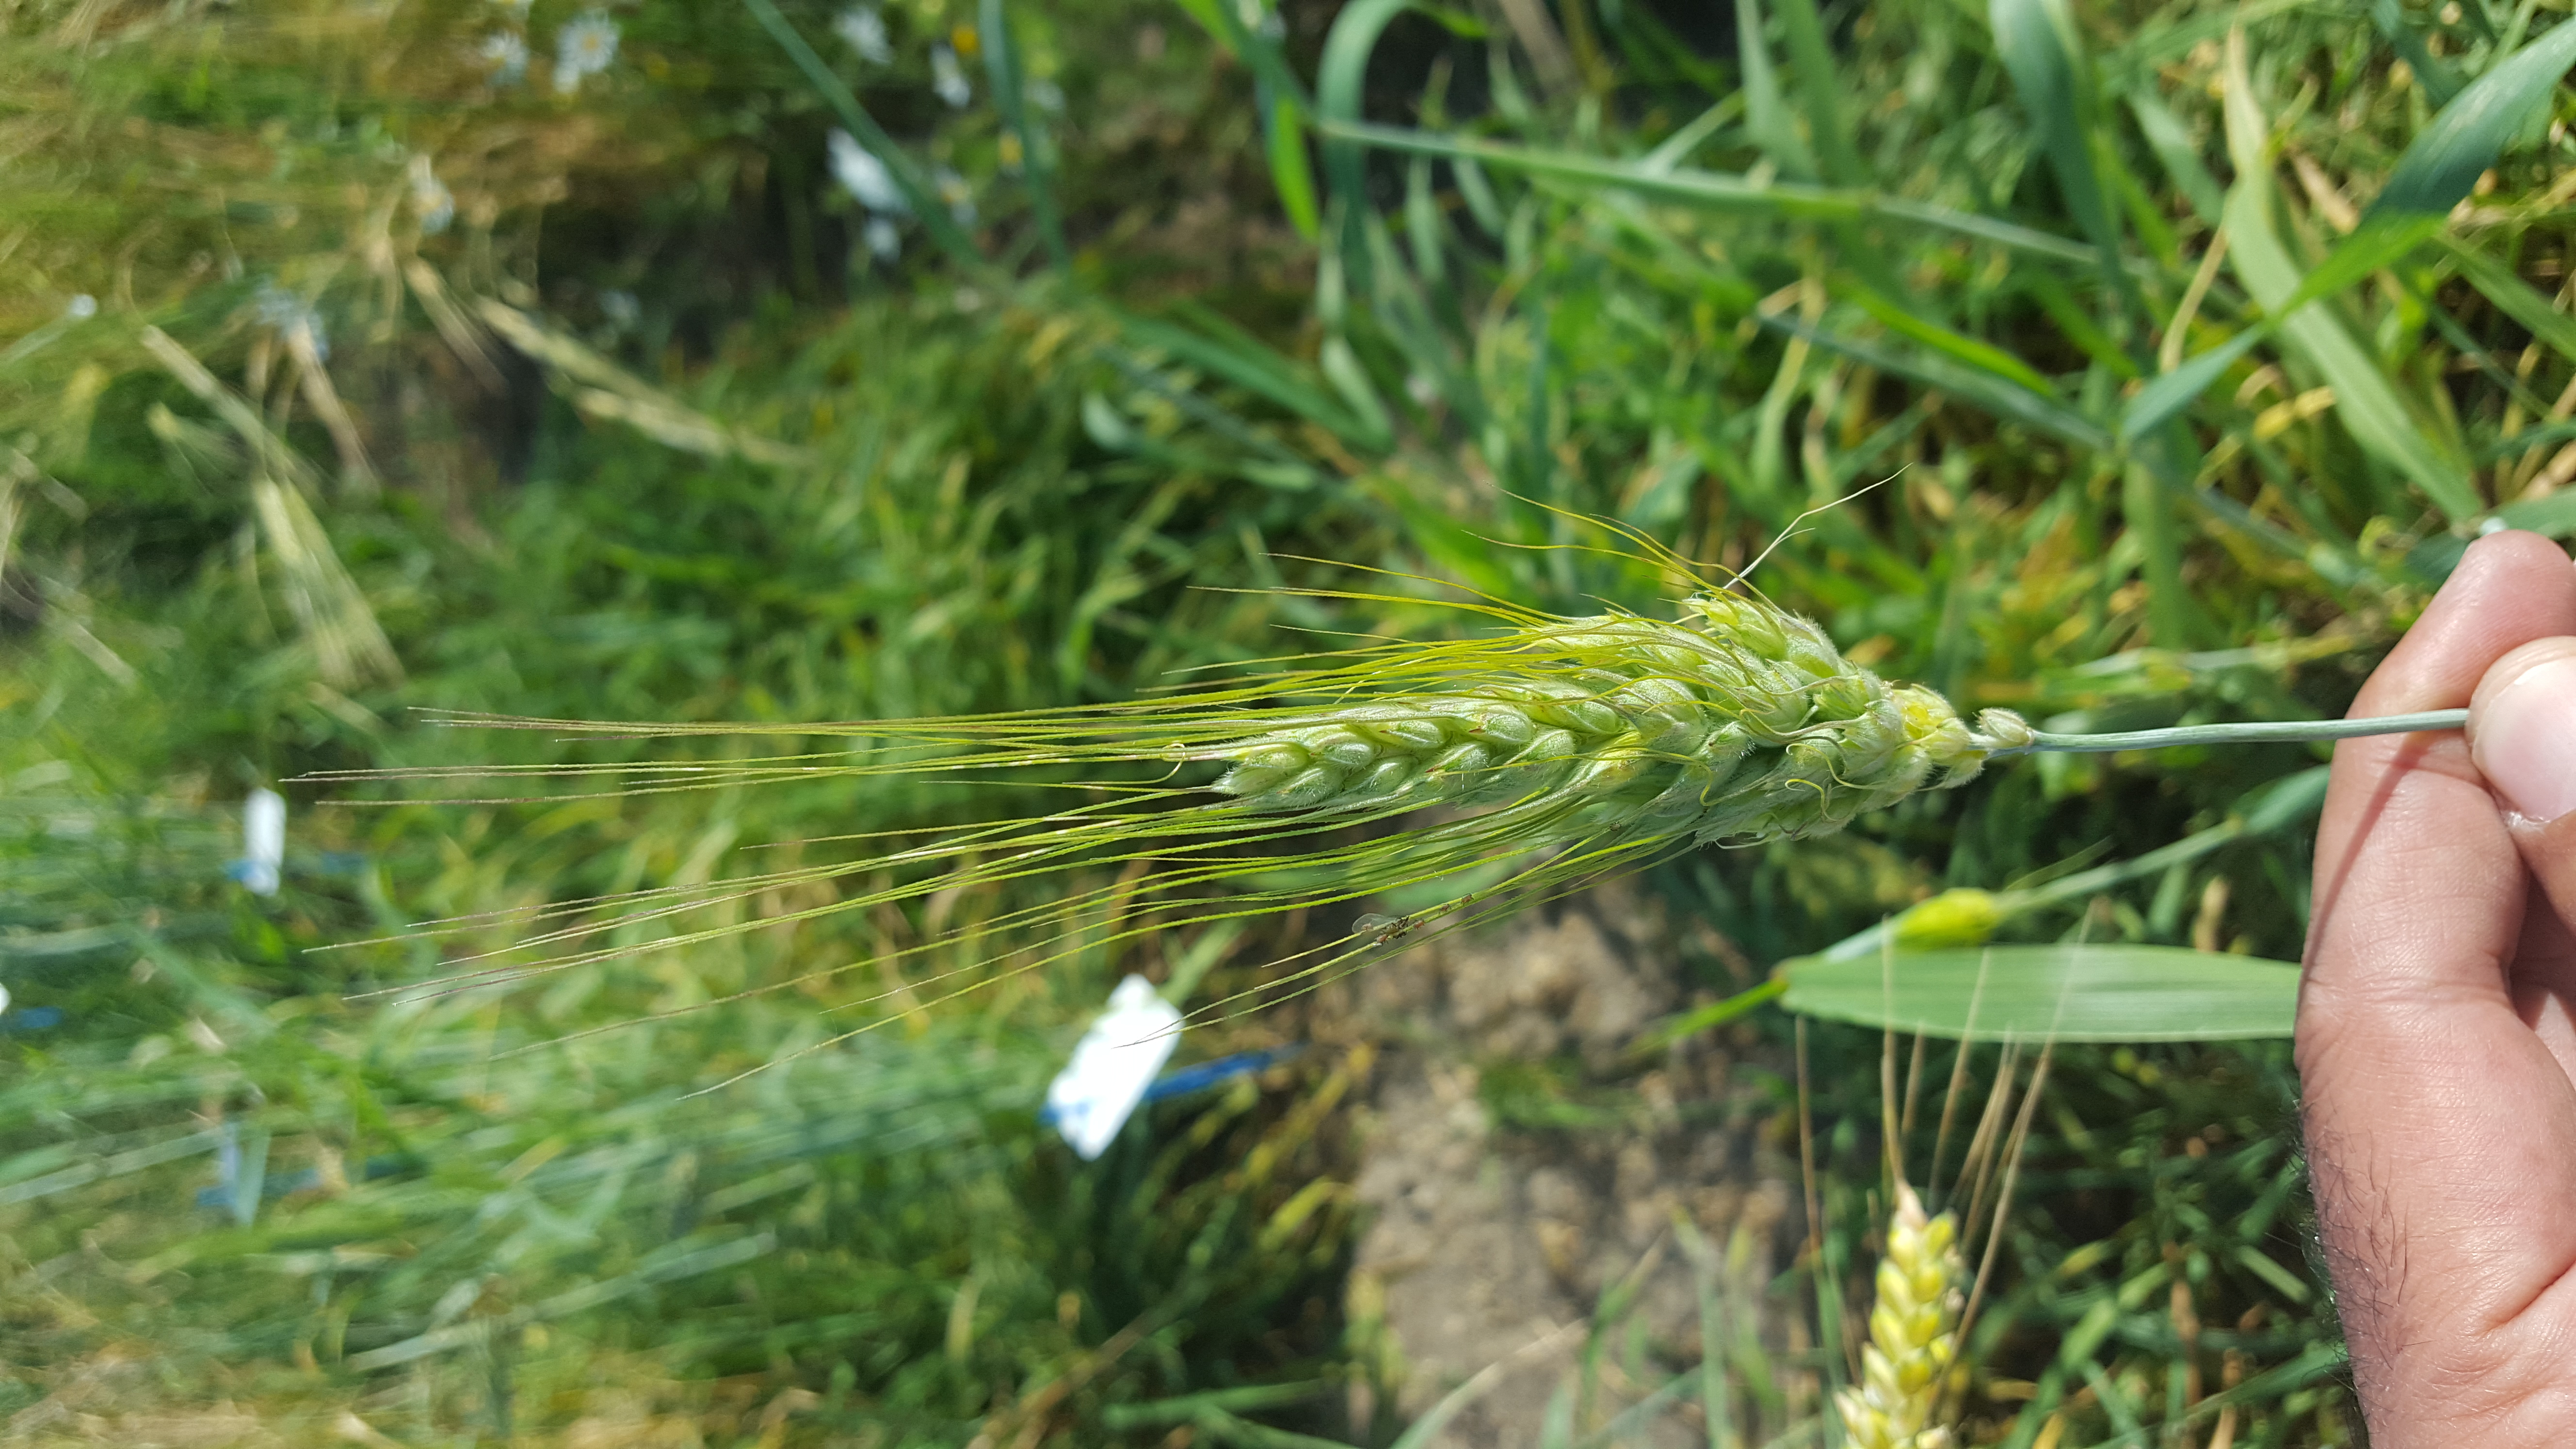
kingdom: Plantae
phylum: Tracheophyta
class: Liliopsida
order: Poales
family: Poaceae
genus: Triticum
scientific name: Triticum turgidum
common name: Rivet wheat
